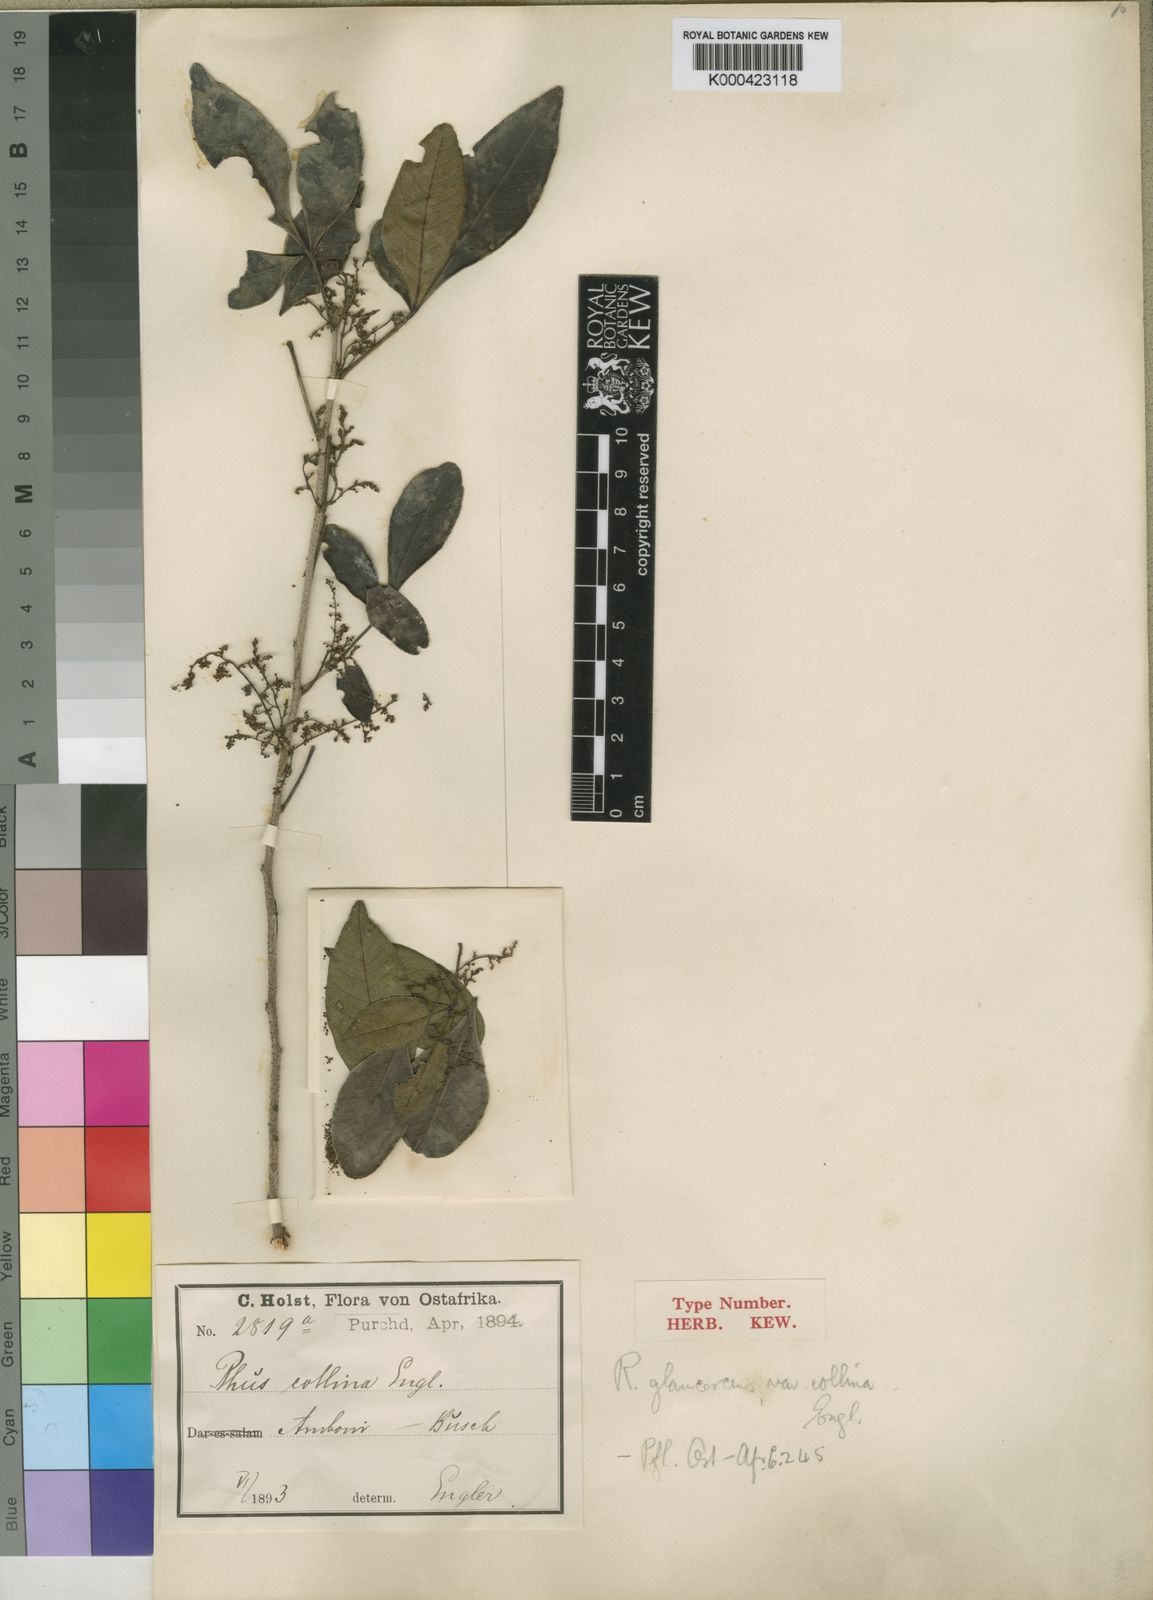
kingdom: Plantae
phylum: Tracheophyta
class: Magnoliopsida
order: Sapindales
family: Anacardiaceae
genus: Searsia
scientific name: Searsia natalensis
